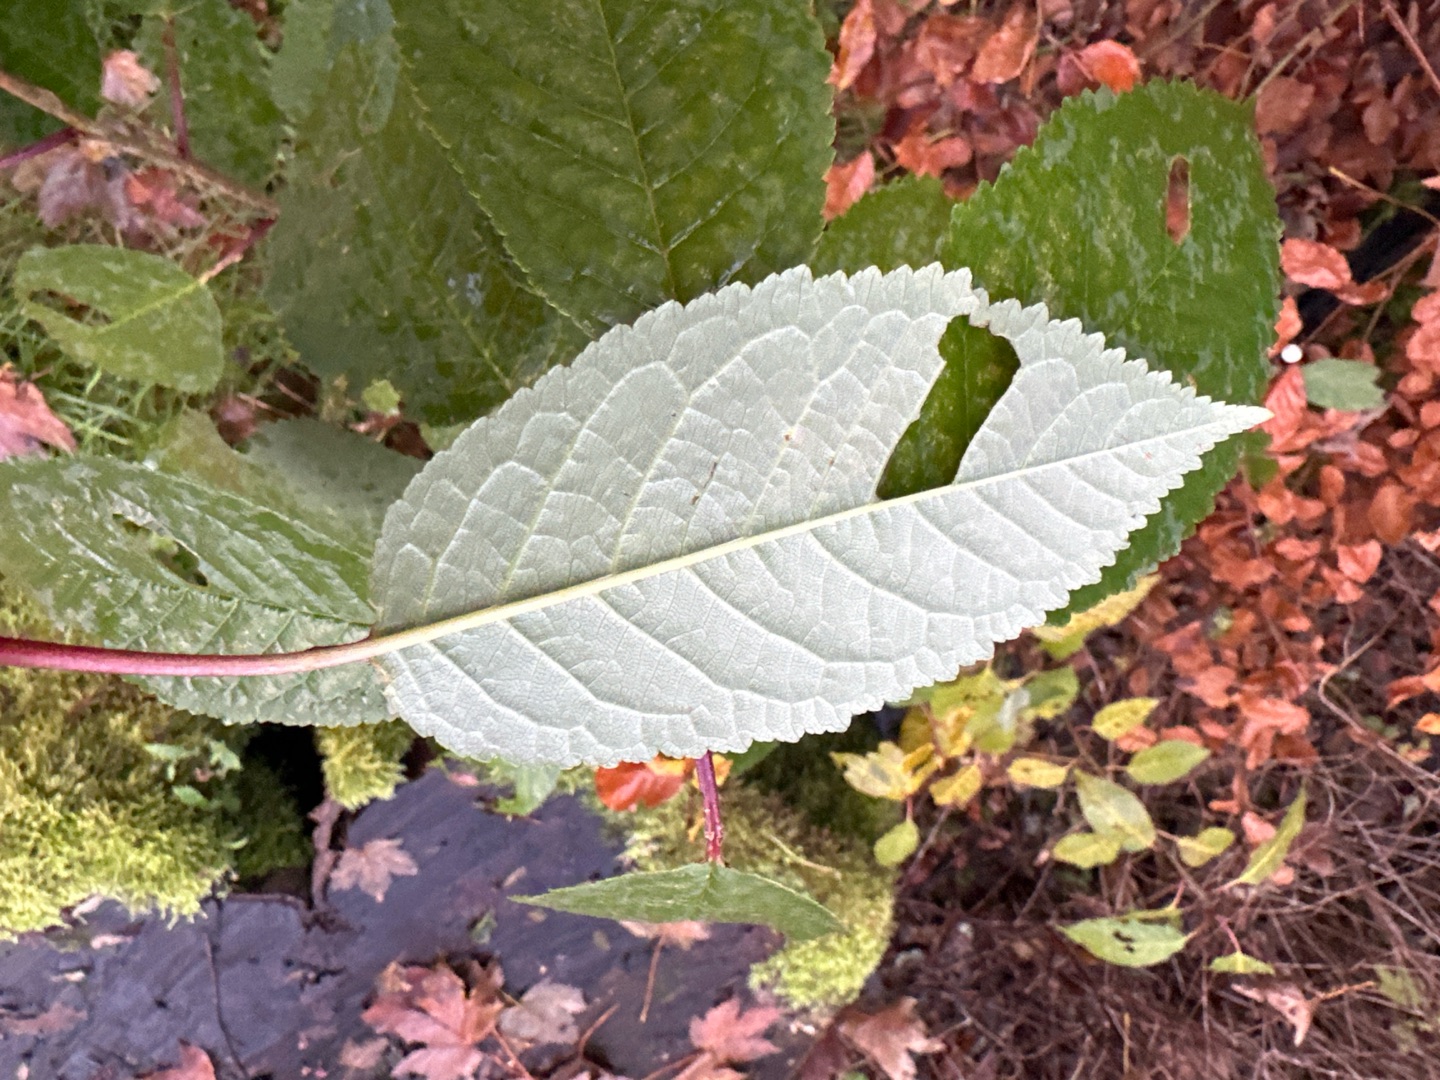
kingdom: Plantae
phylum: Tracheophyta
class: Magnoliopsida
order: Rosales
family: Rosaceae
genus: Prunus
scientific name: Prunus avium
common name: Fugle-kirsebær
